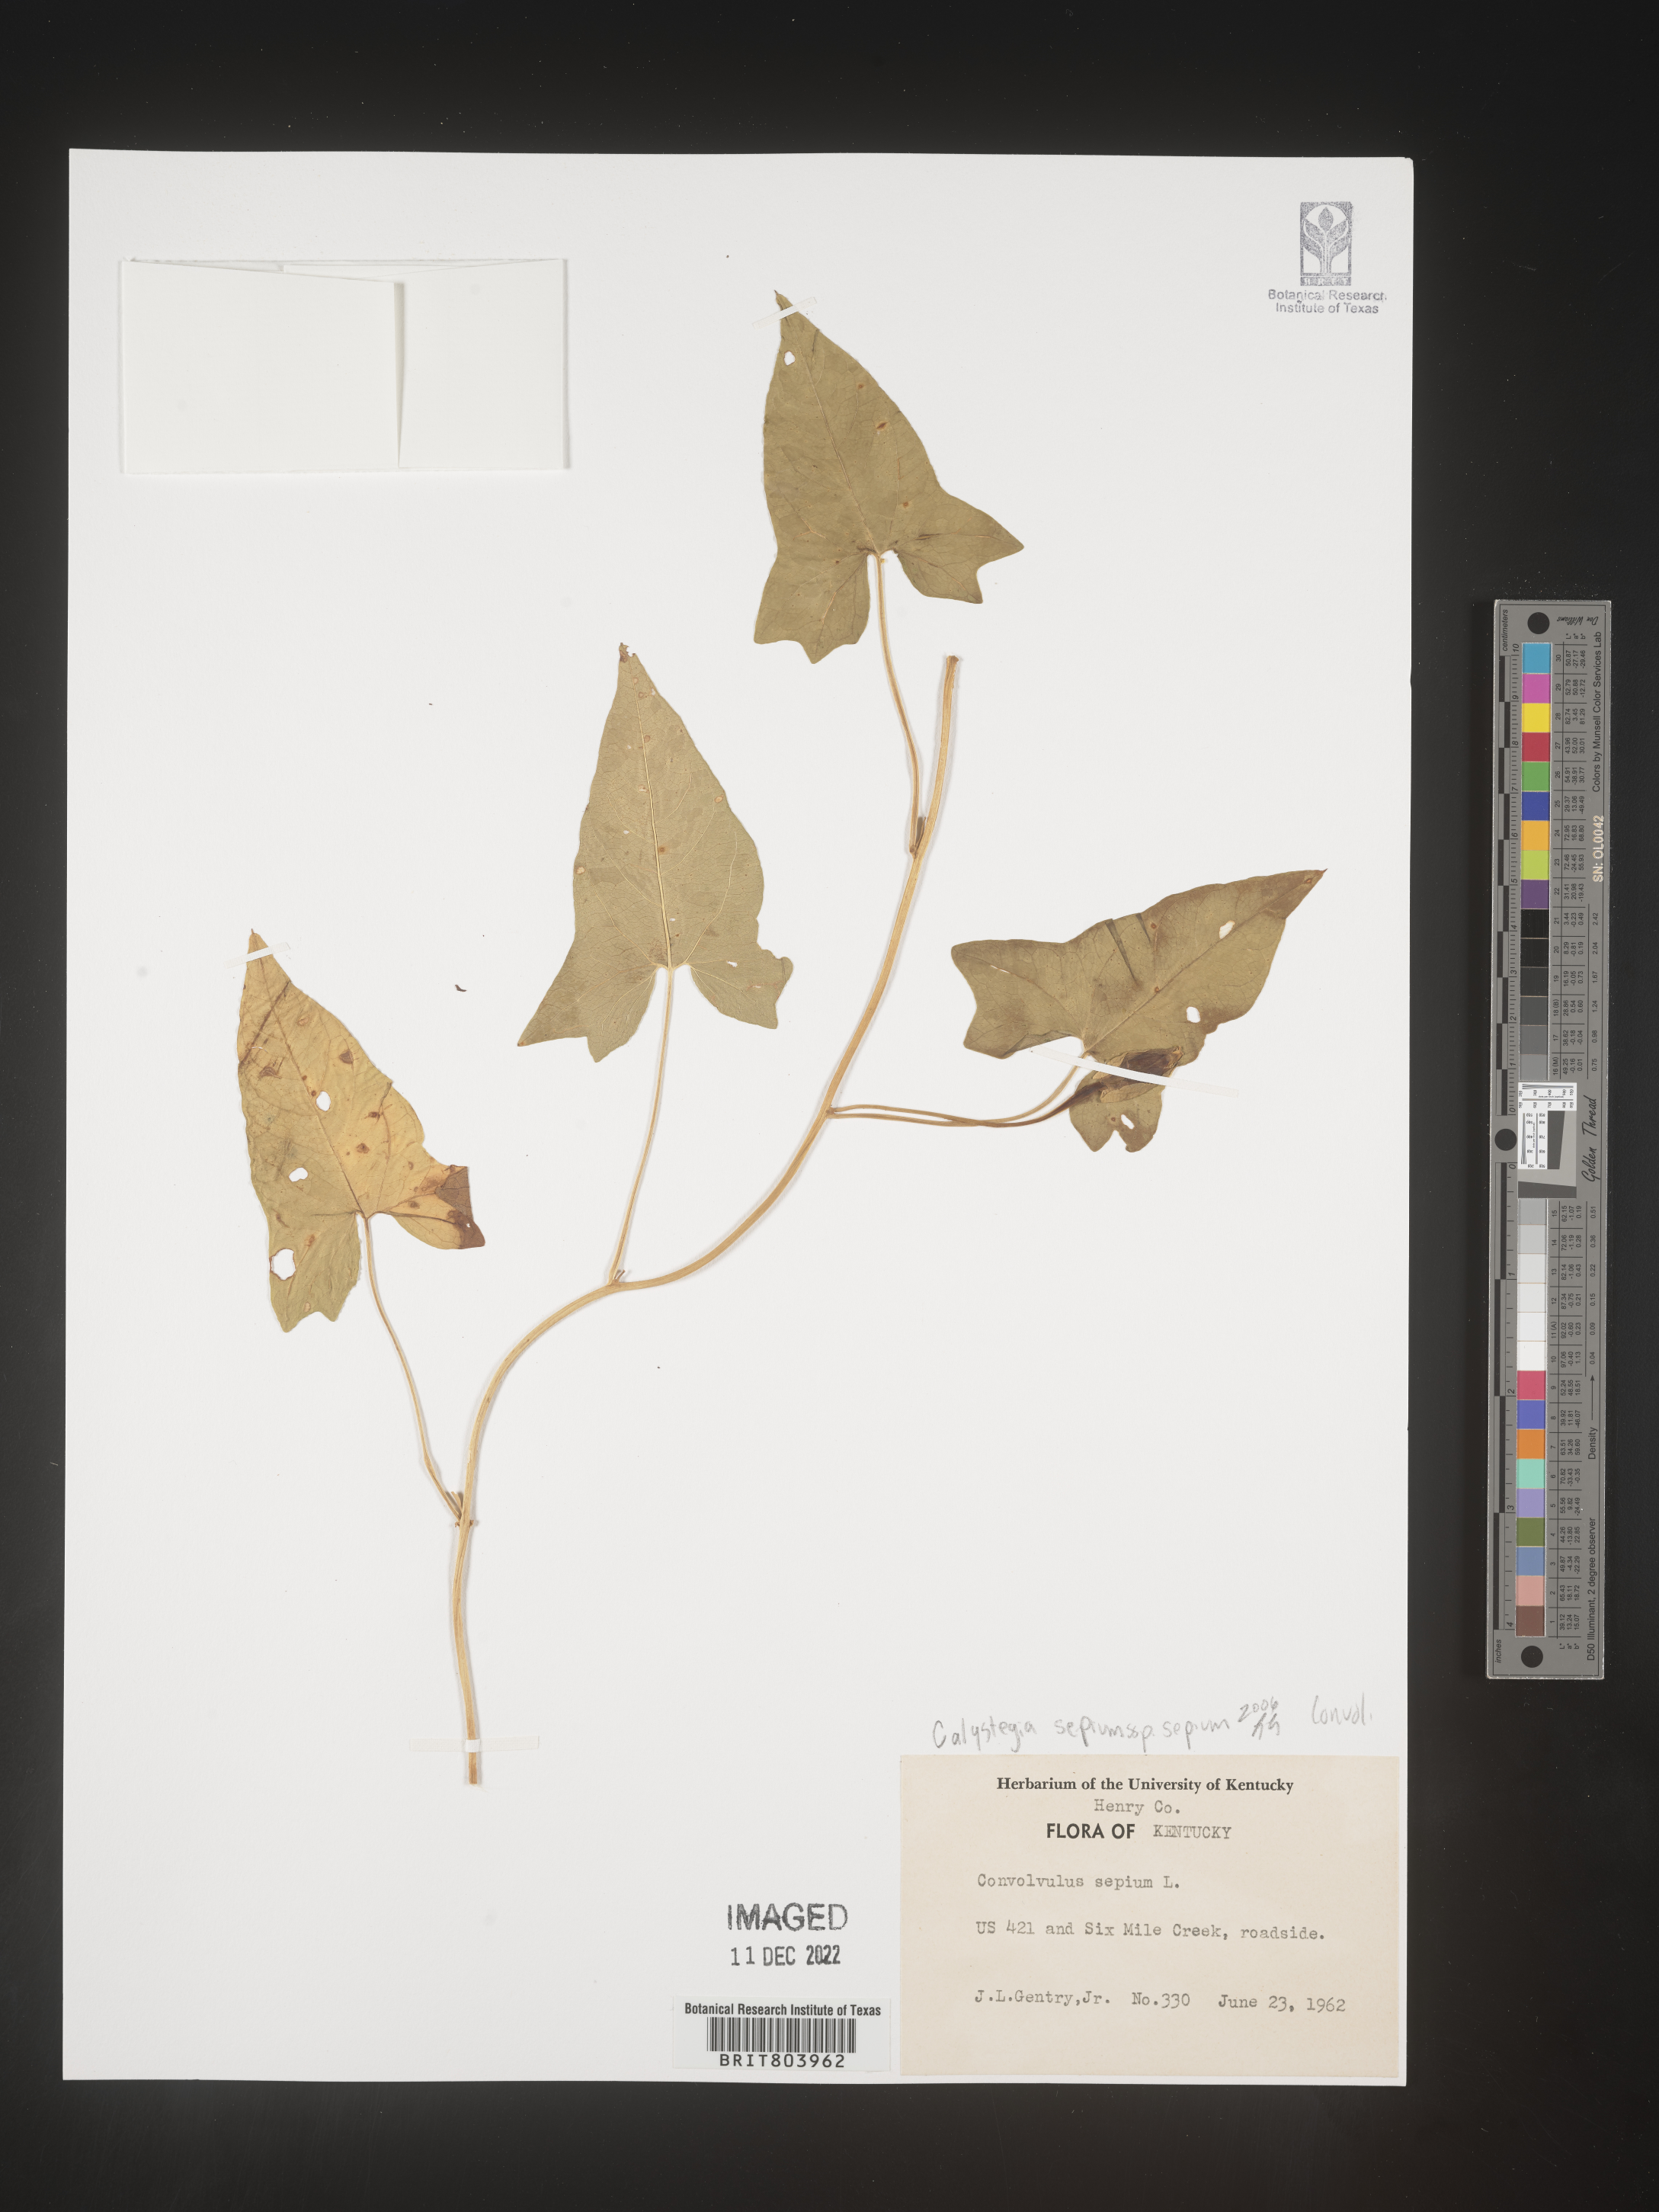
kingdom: Plantae
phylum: Tracheophyta
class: Magnoliopsida
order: Solanales
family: Convolvulaceae
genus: Calystegia
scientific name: Calystegia sepium
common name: Hedge bindweed
